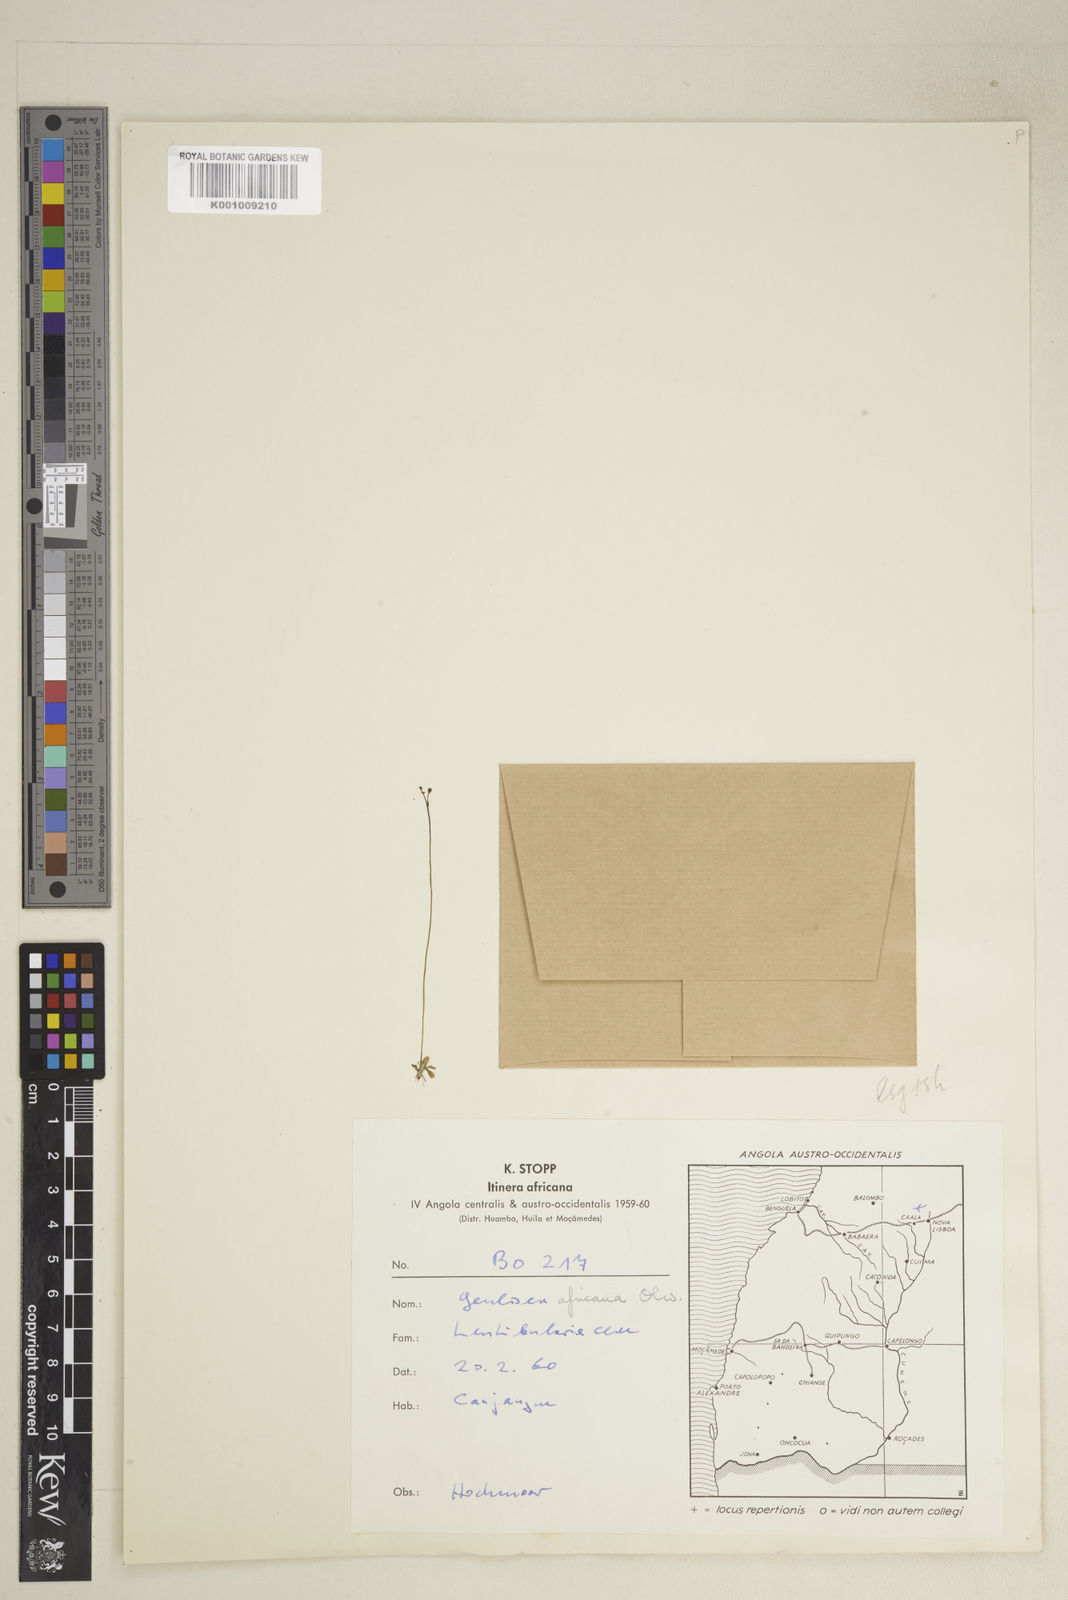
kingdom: Plantae
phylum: Tracheophyta
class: Magnoliopsida
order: Lamiales
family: Lentibulariaceae
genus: Genlisea
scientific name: Genlisea africana
